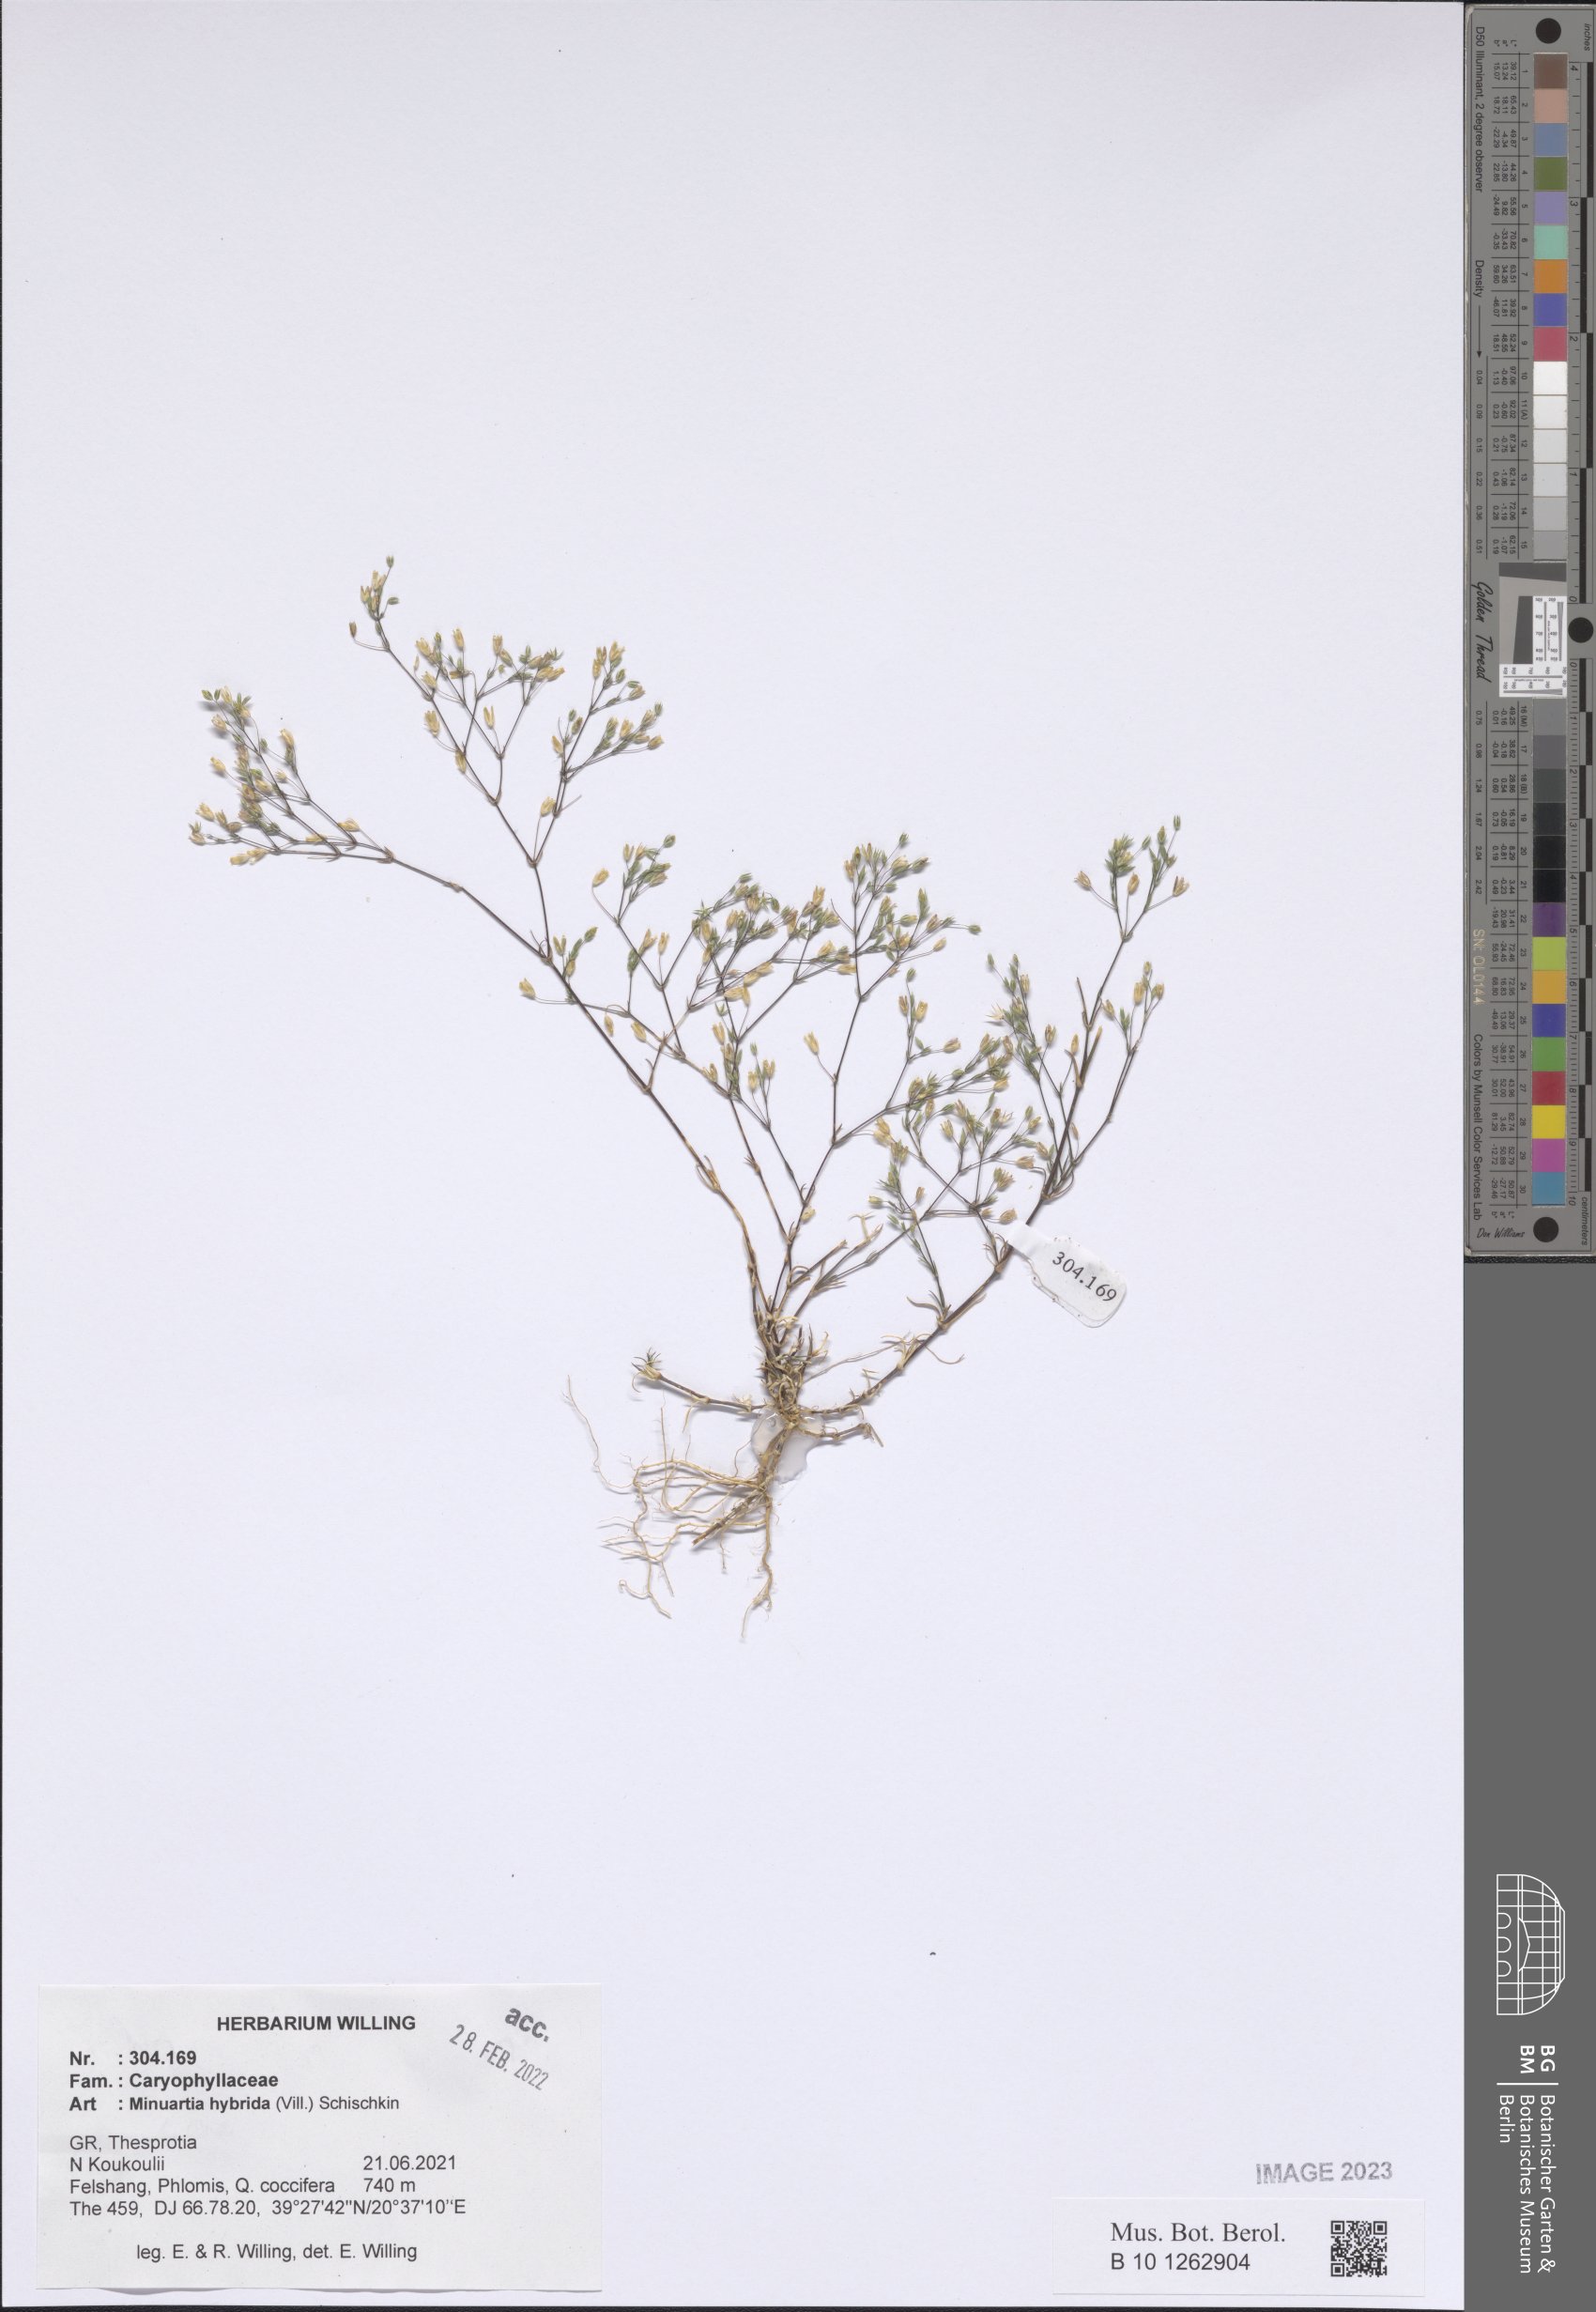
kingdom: Plantae
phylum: Tracheophyta
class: Magnoliopsida
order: Caryophyllales
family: Caryophyllaceae
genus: Sabulina
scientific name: Sabulina tenuifolia
